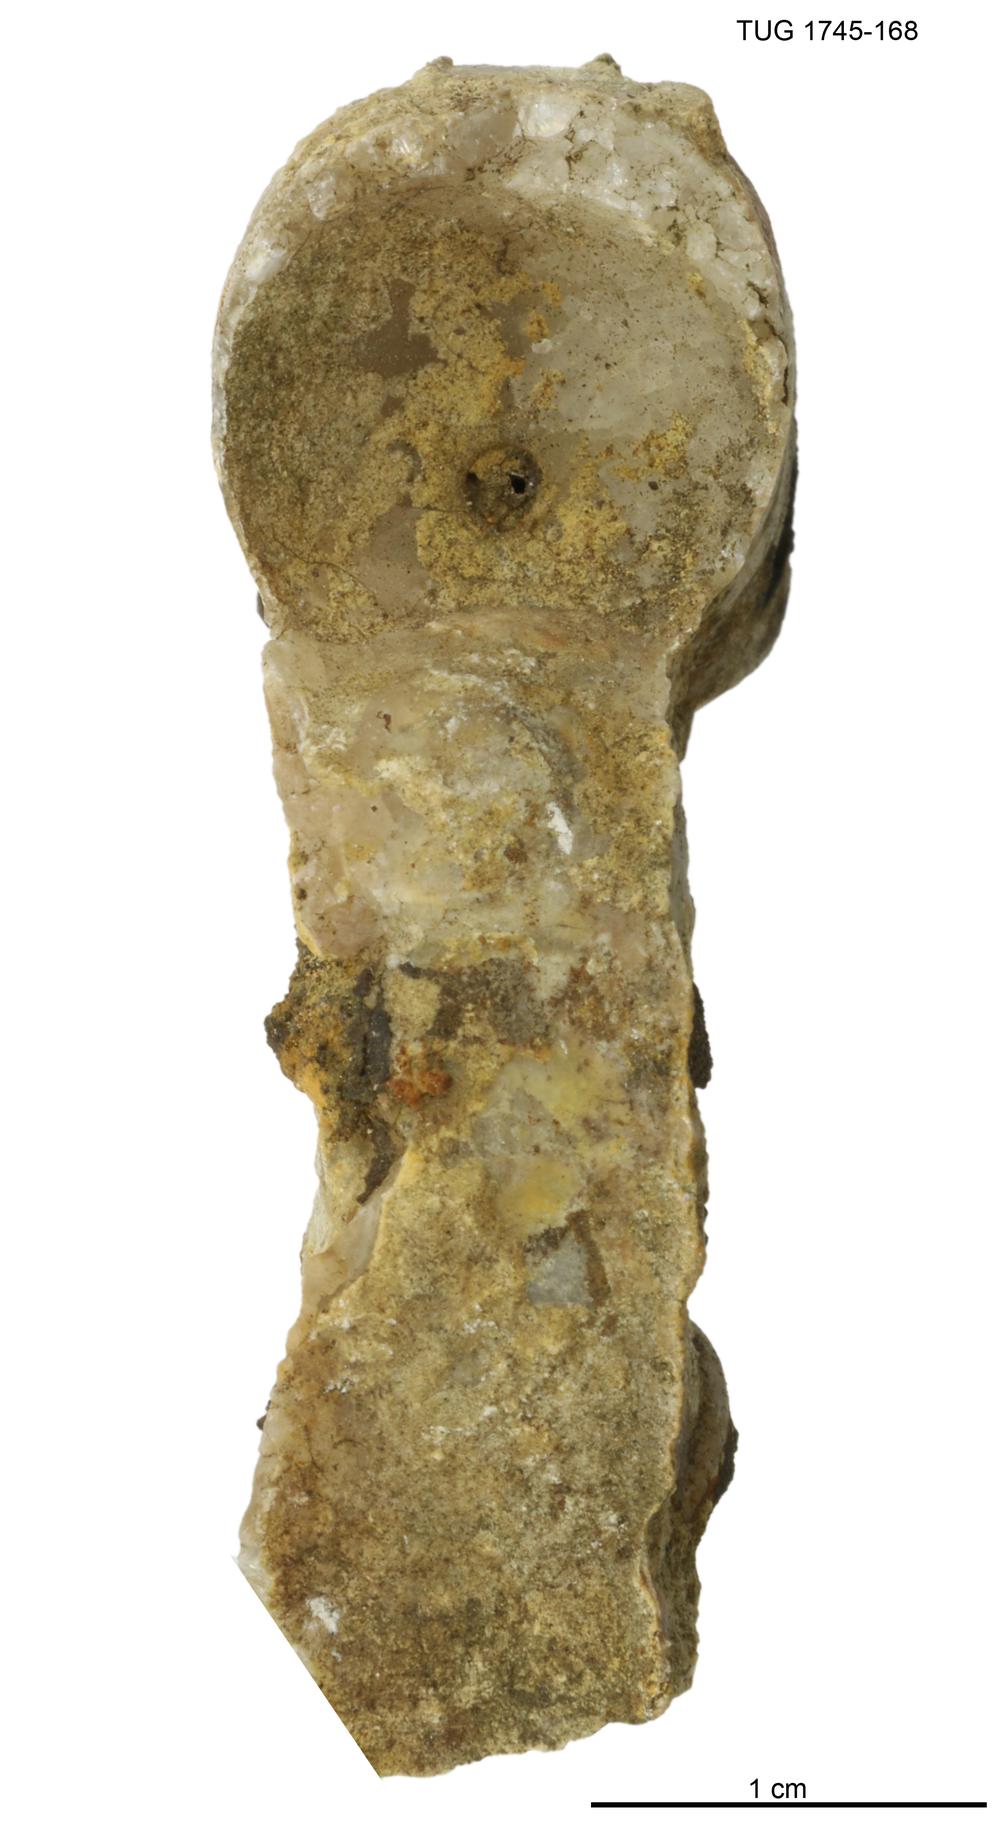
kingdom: Animalia
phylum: Mollusca
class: Cephalopoda
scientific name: Cephalopoda
